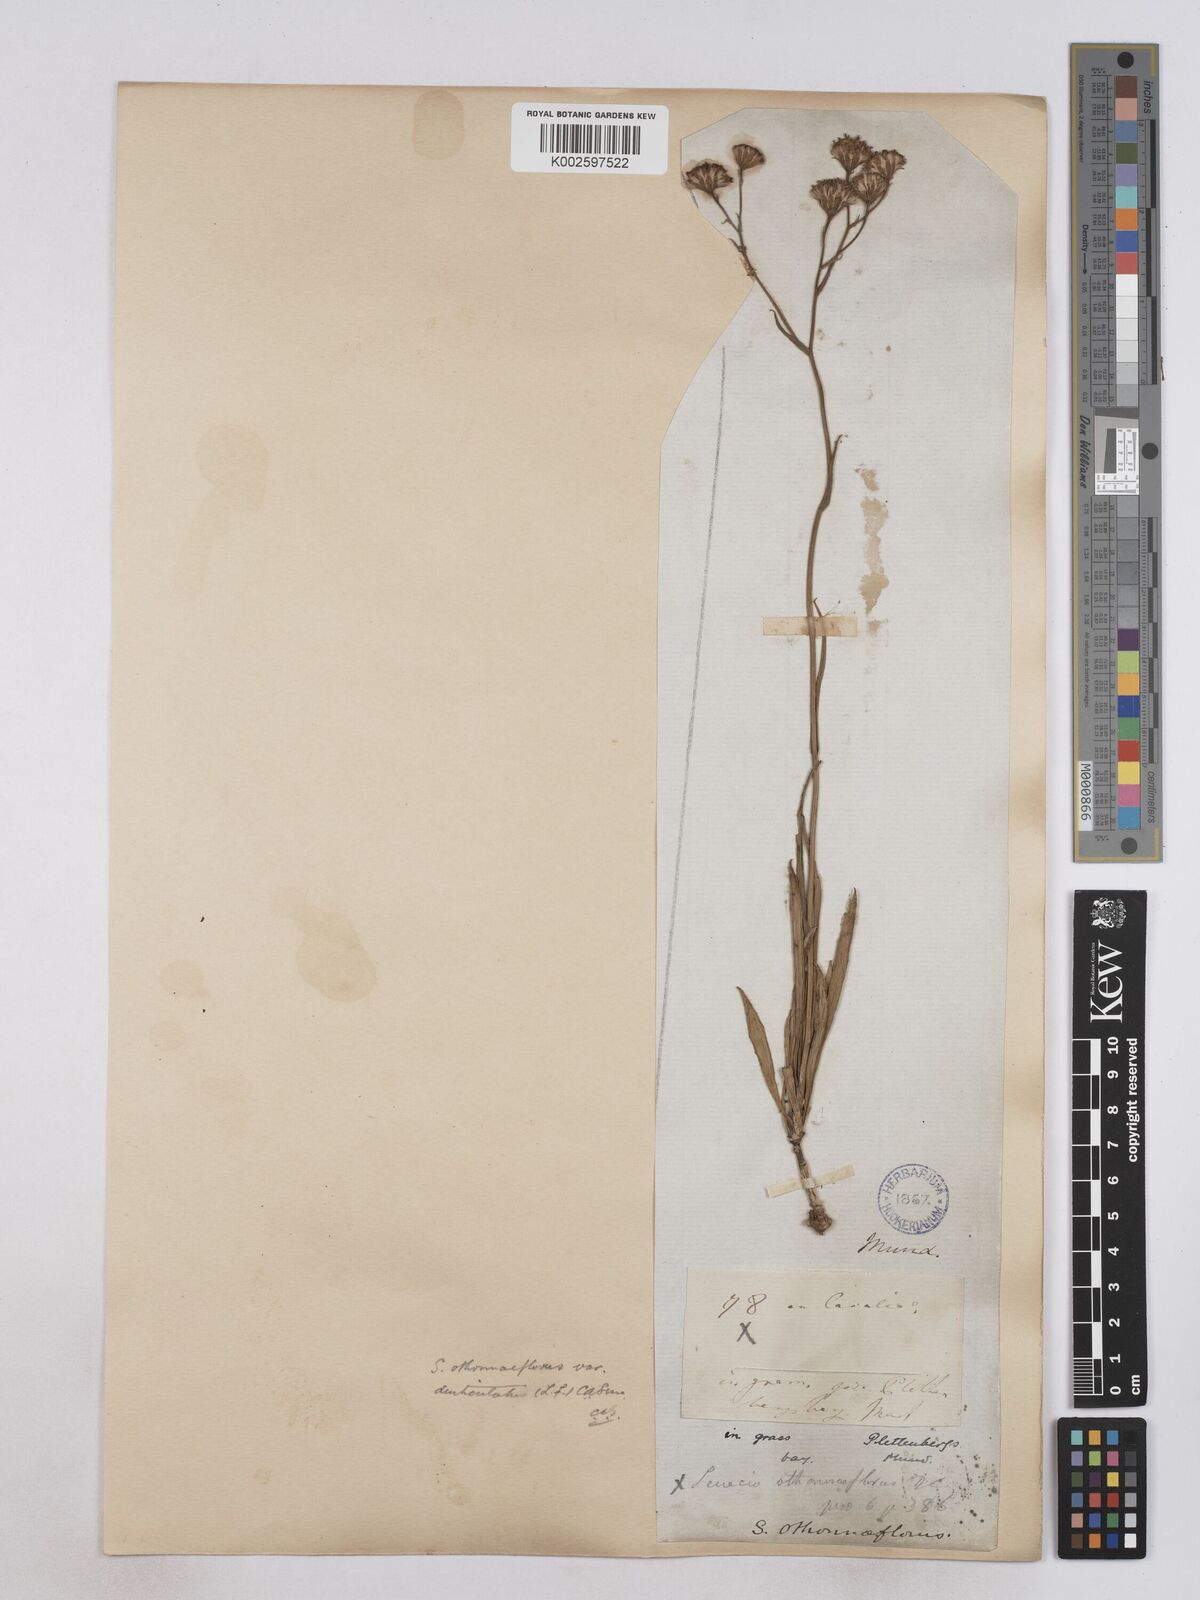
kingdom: Plantae
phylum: Tracheophyta
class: Magnoliopsida
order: Asterales
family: Asteraceae
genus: Senecio
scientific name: Senecio othonniflorus
